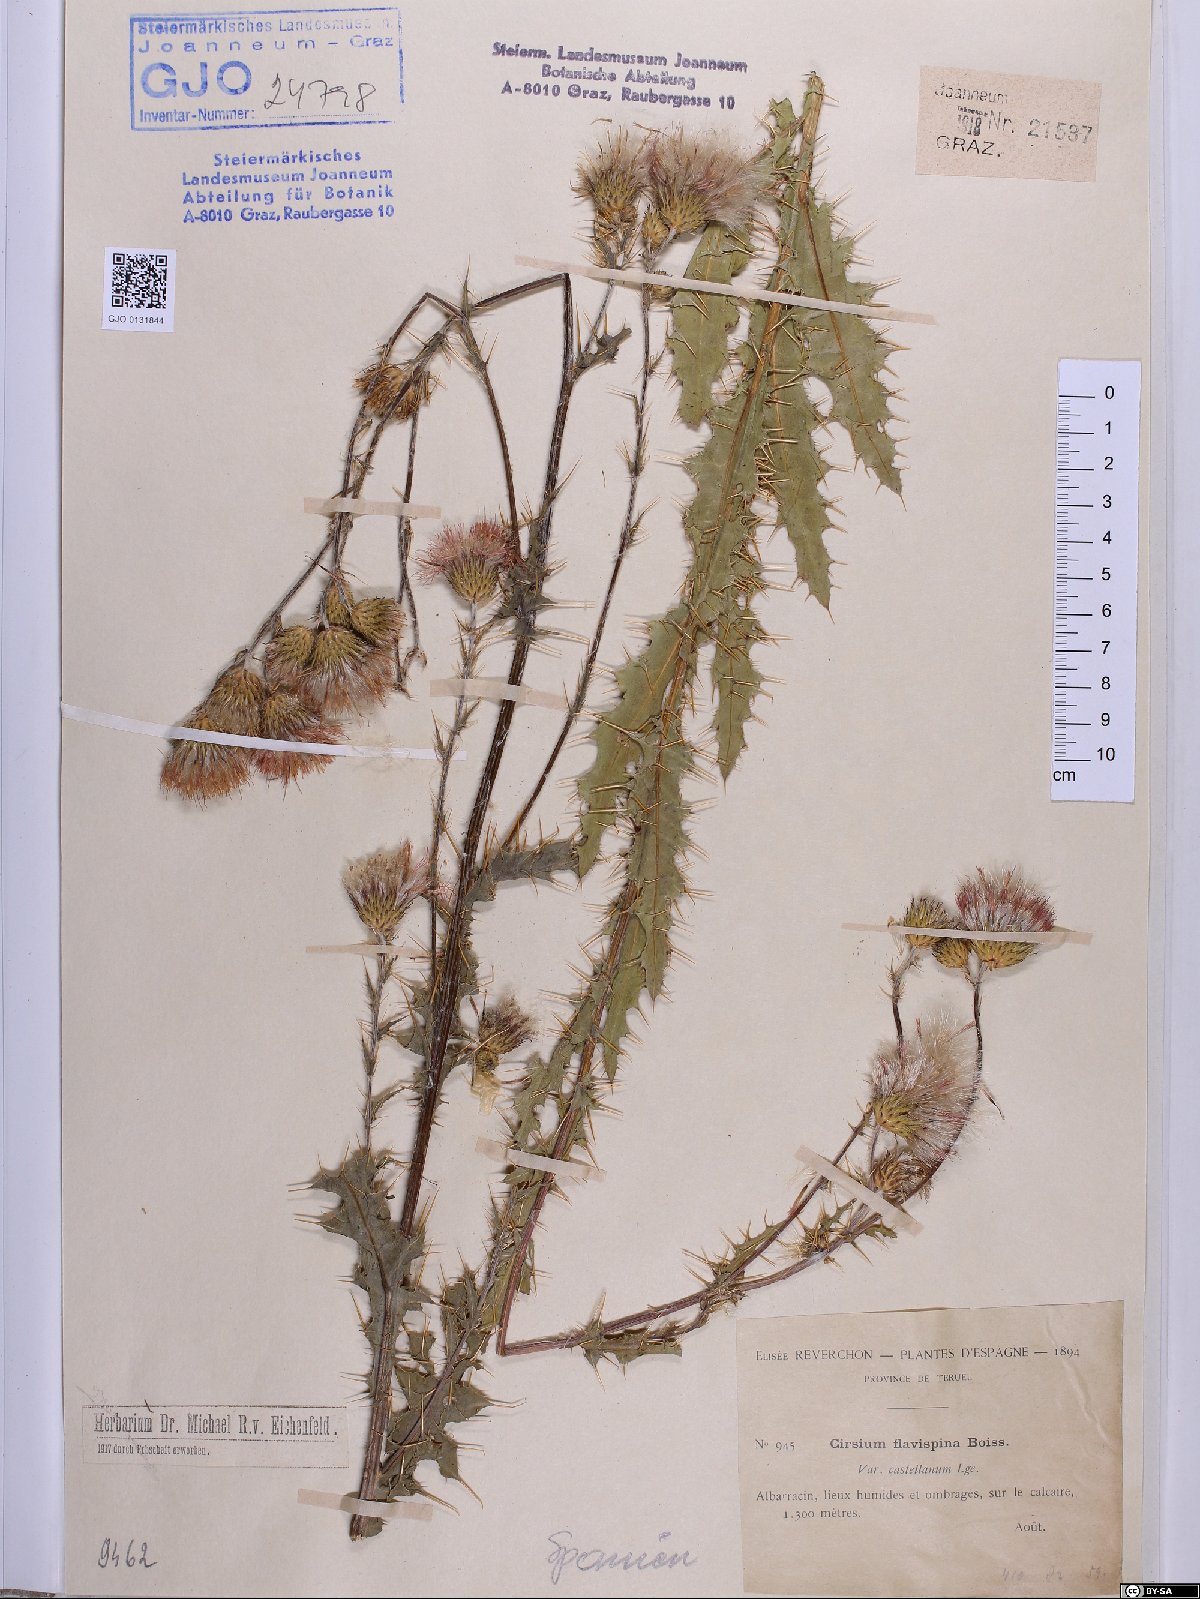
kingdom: Plantae
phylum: Tracheophyta
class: Magnoliopsida
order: Asterales
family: Asteraceae
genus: Cirsium
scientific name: Cirsium pyrenaicum
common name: Pyrenean thistle
